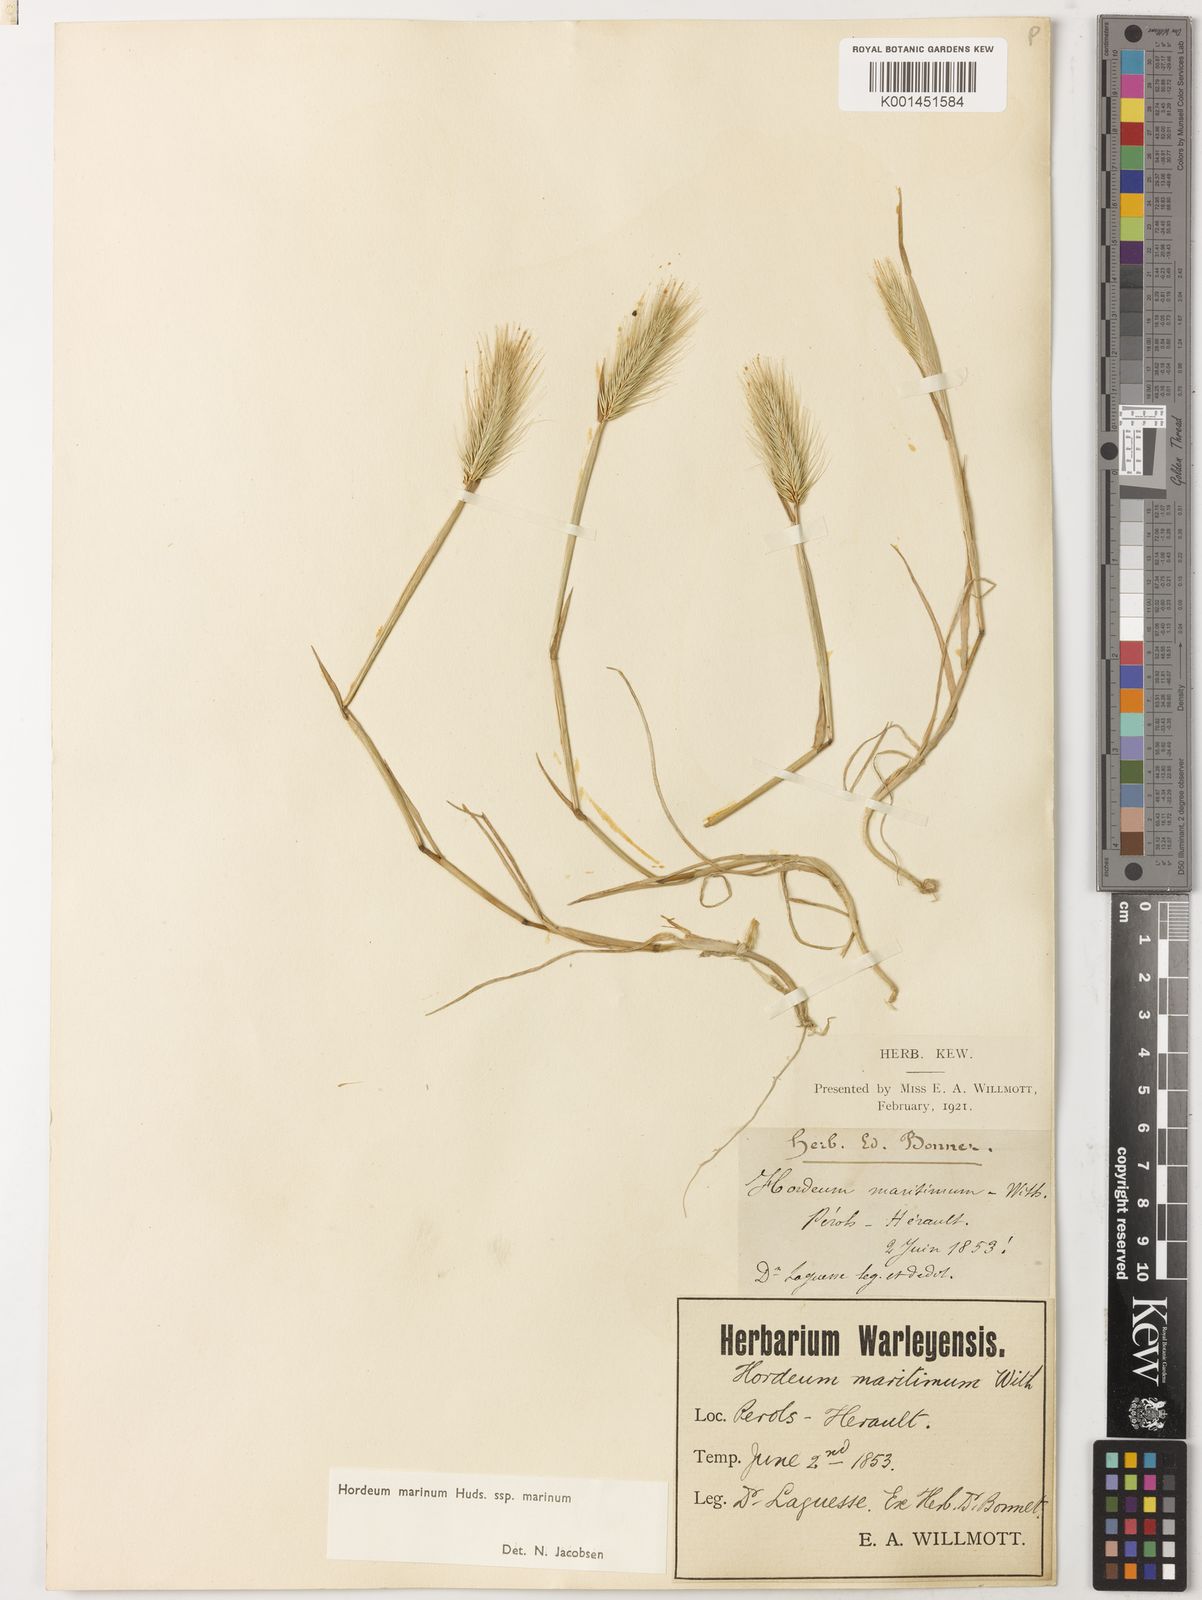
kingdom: Plantae
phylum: Tracheophyta
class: Liliopsida
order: Poales
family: Poaceae
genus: Hordeum
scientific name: Hordeum marinum
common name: Sea barley
